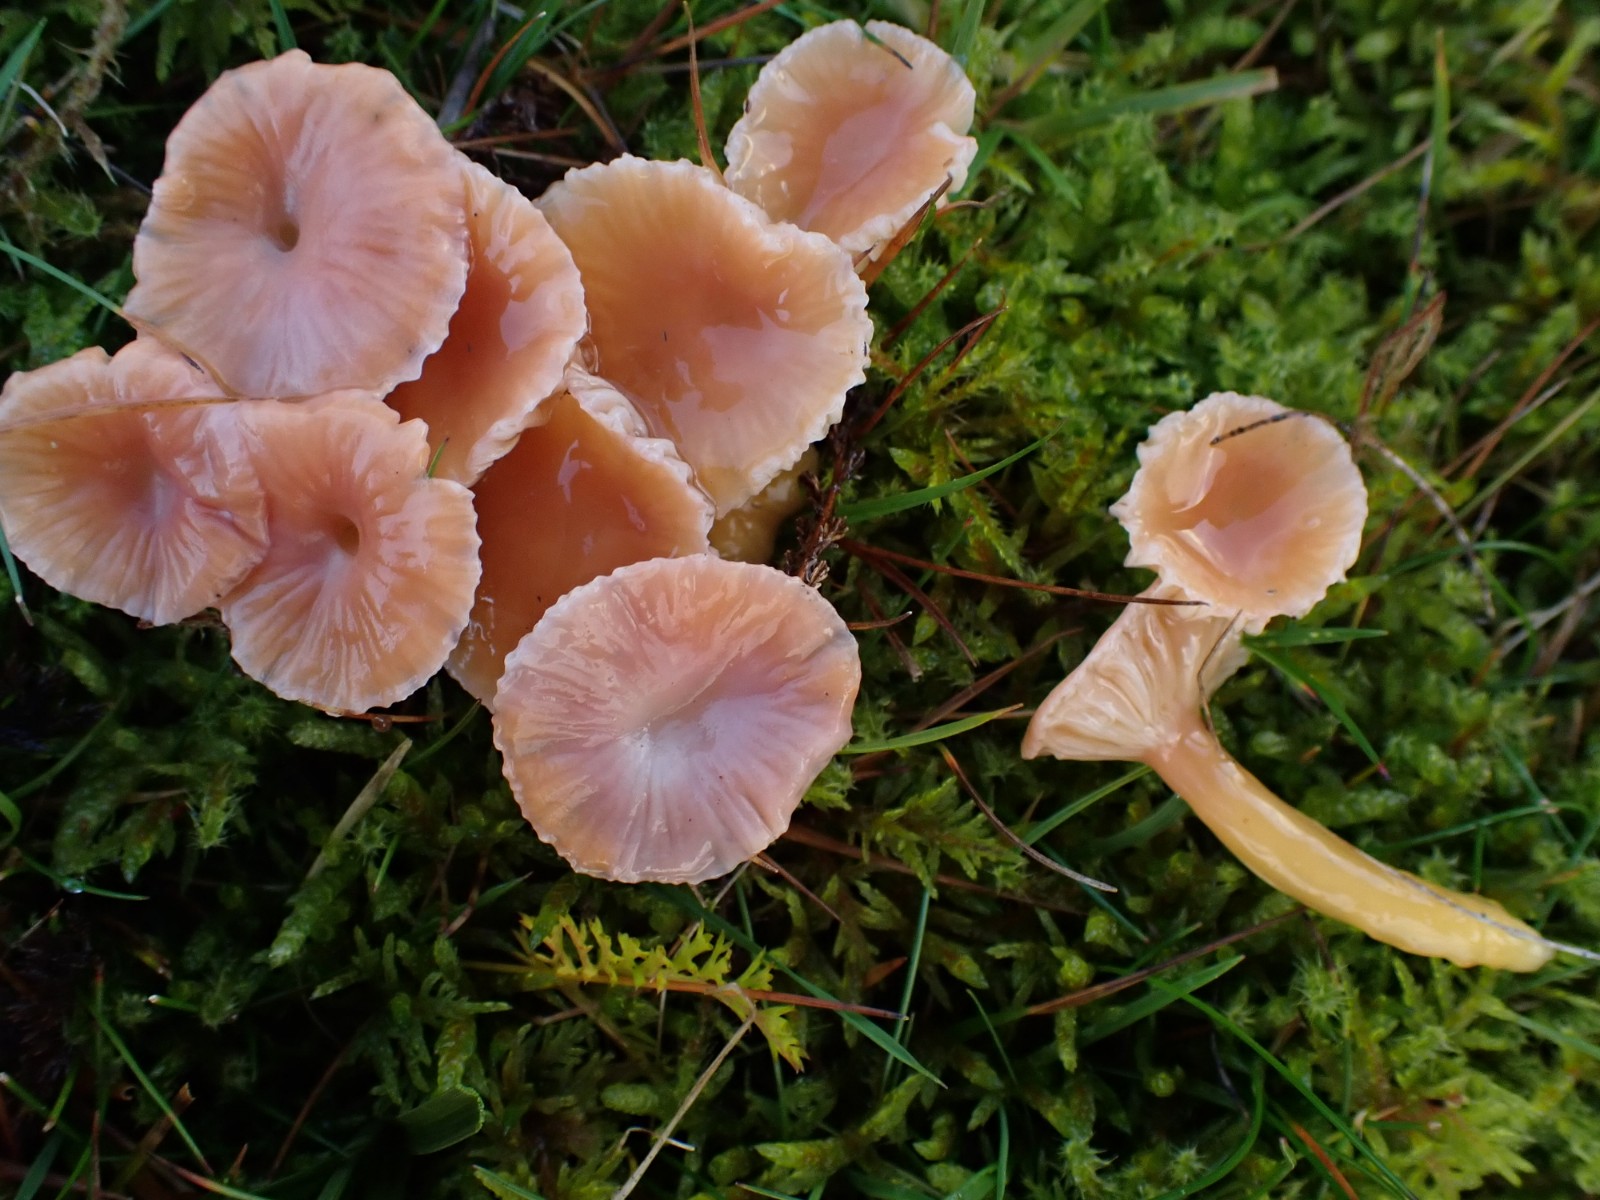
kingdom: Fungi
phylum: Basidiomycota
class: Agaricomycetes
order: Agaricales
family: Hygrophoraceae
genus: Gliophorus
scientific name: Gliophorus laetus
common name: brusk-vokshat
